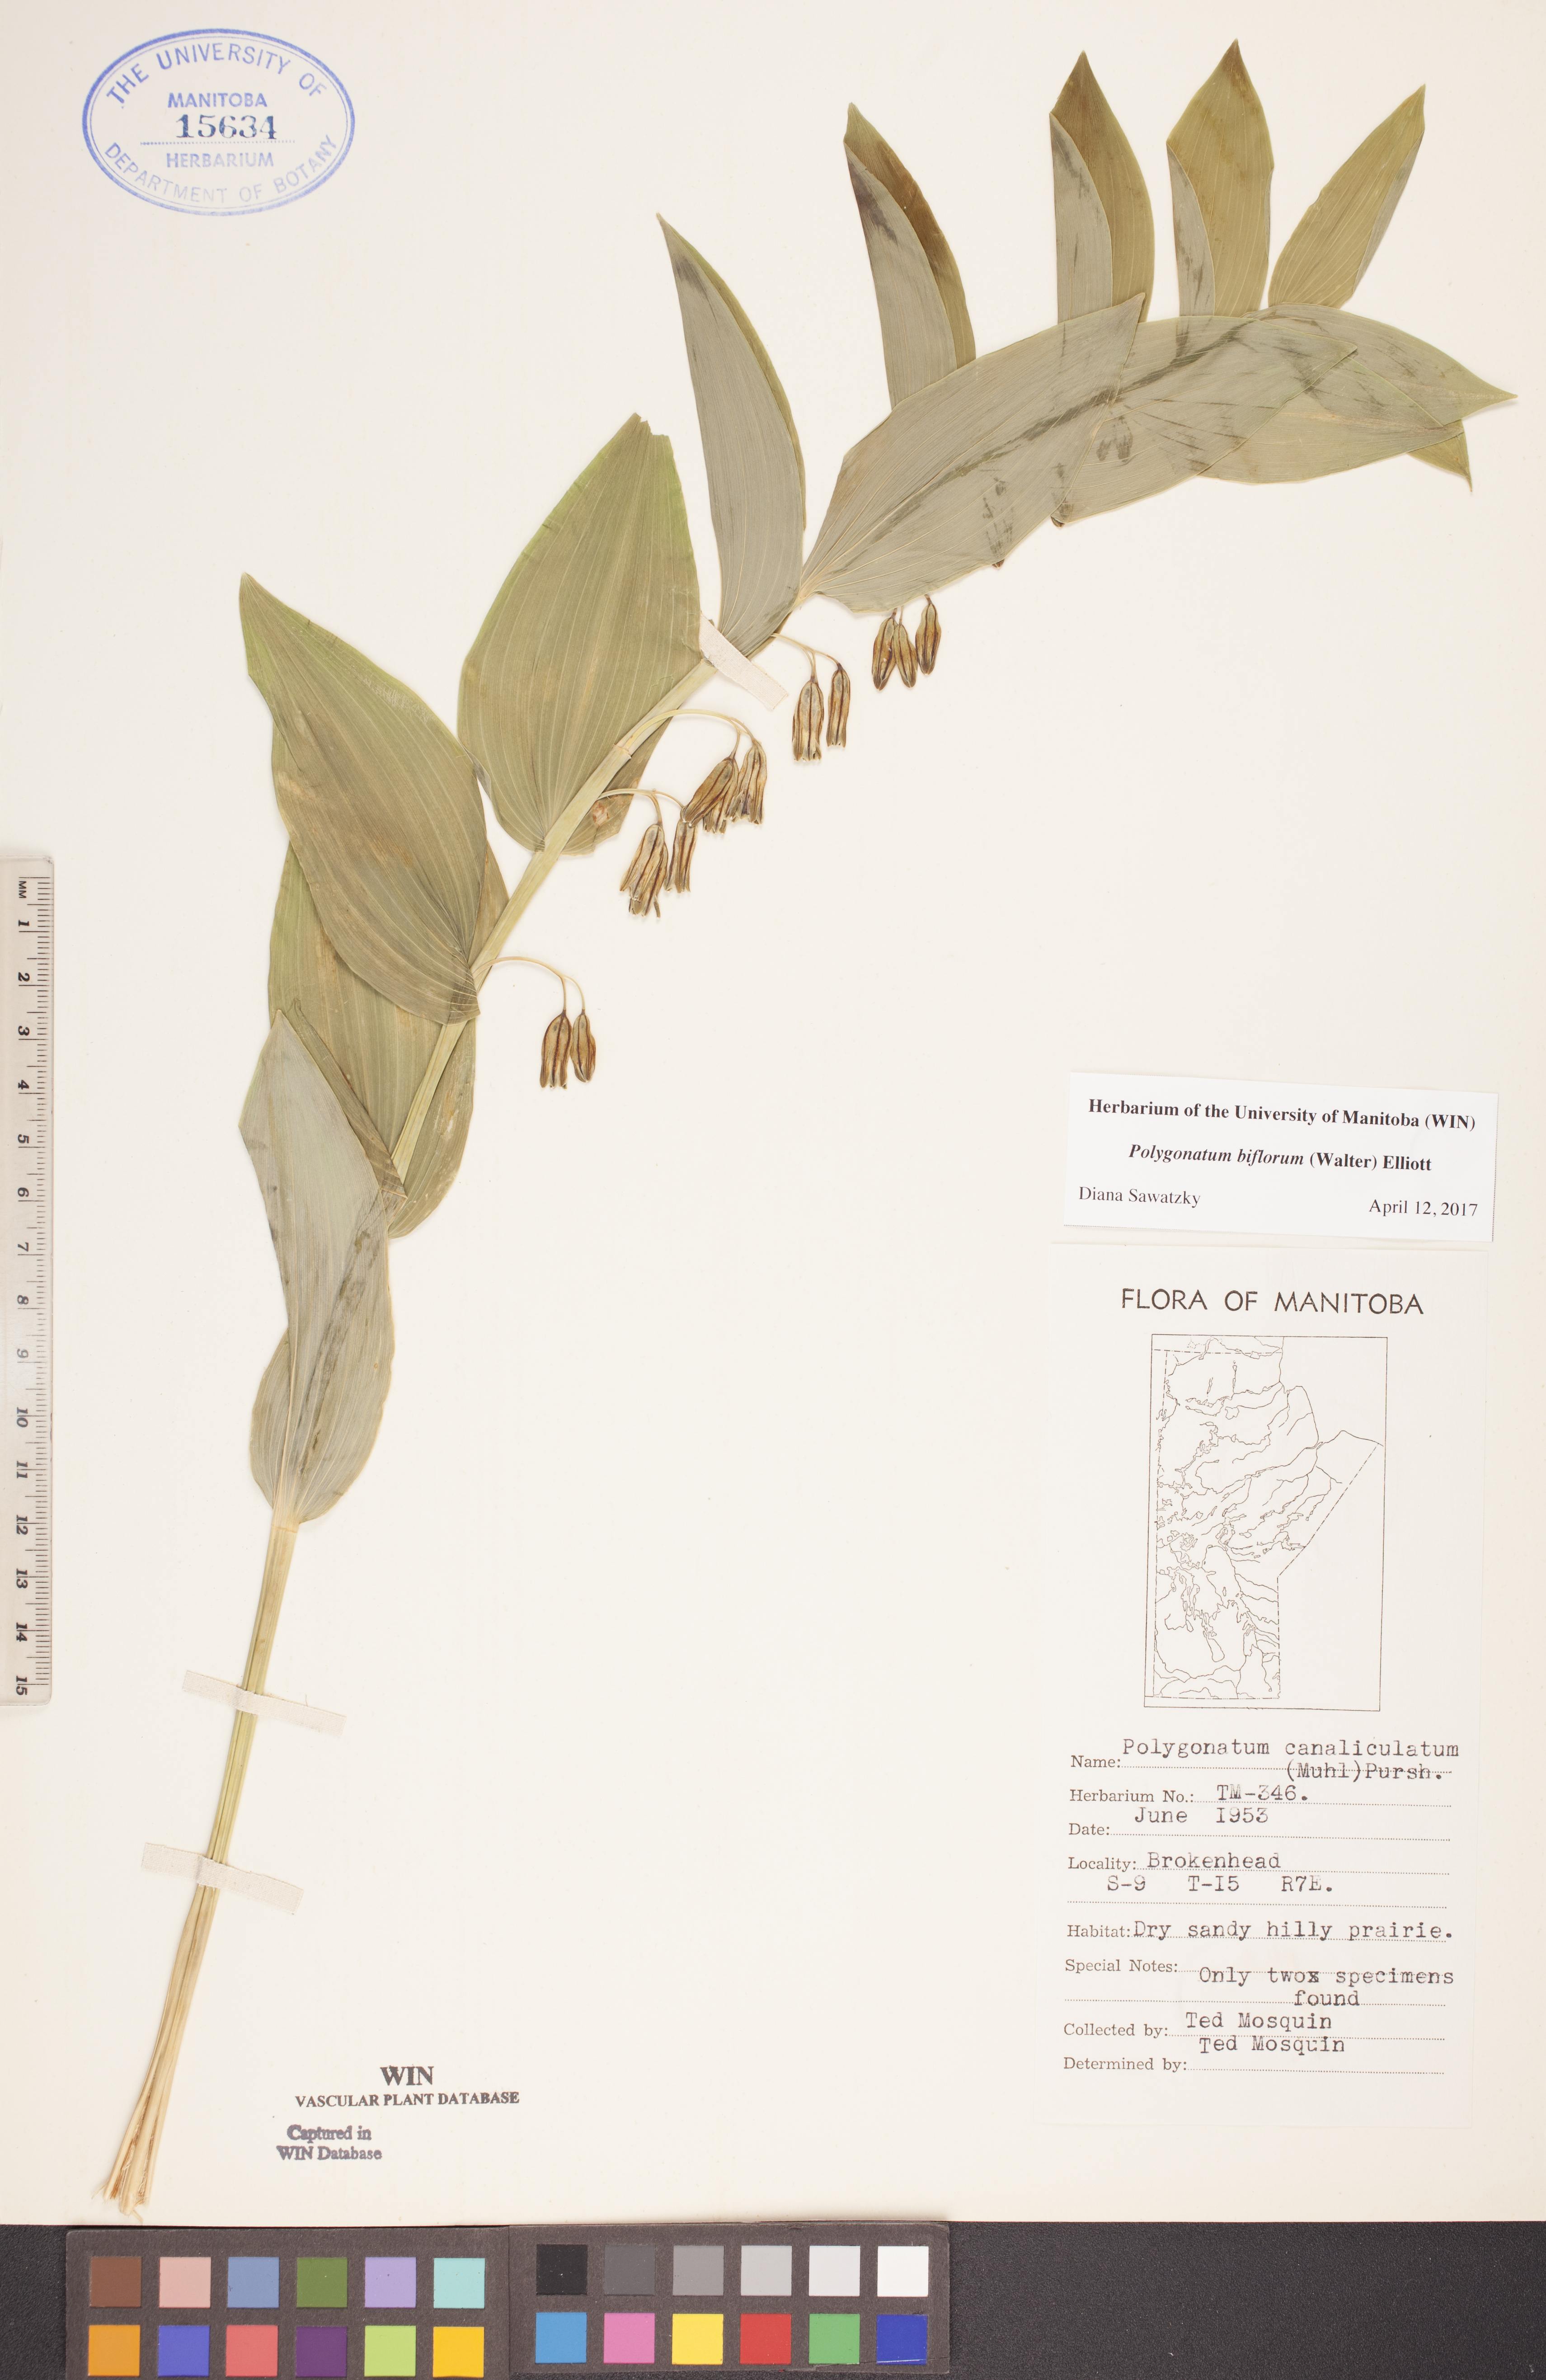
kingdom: Plantae
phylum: Tracheophyta
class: Liliopsida
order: Asparagales
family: Asparagaceae
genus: Polygonatum
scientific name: Polygonatum biflorum
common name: American solomon's-seal
